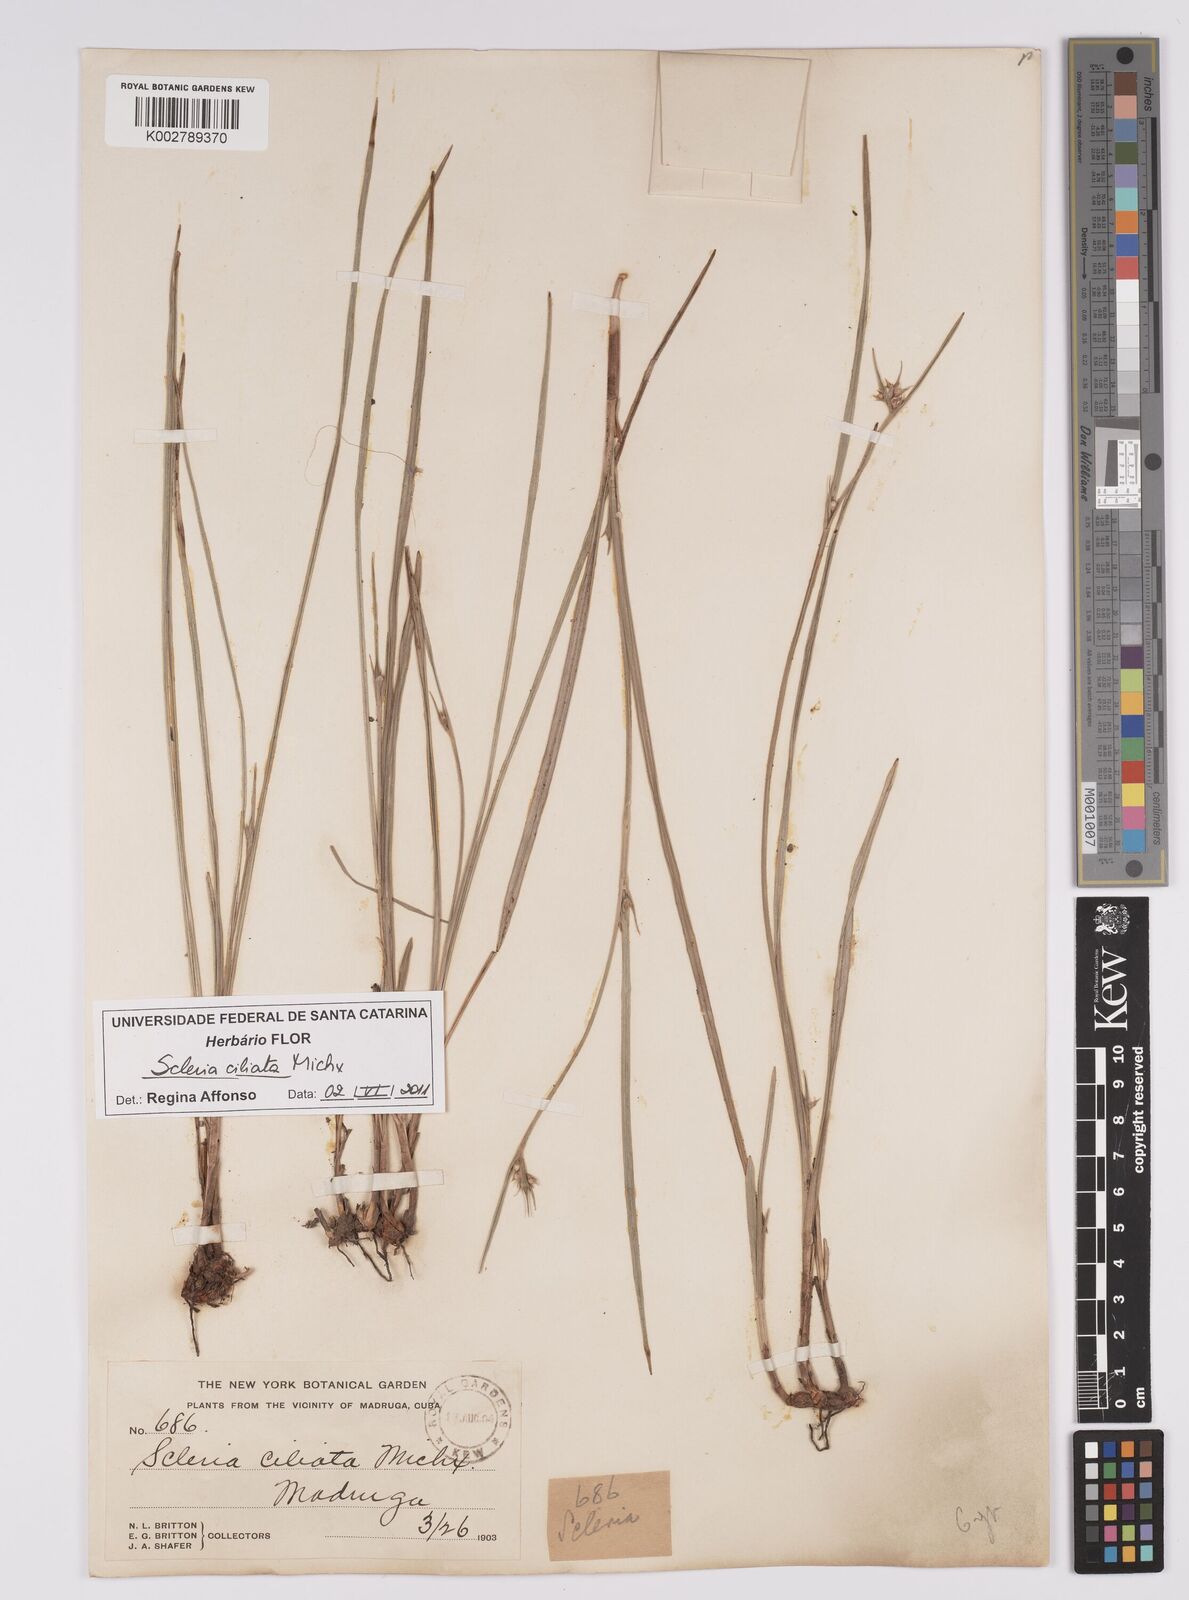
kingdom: Plantae
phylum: Tracheophyta
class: Liliopsida
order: Poales
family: Cyperaceae
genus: Scleria
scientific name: Scleria ciliata
